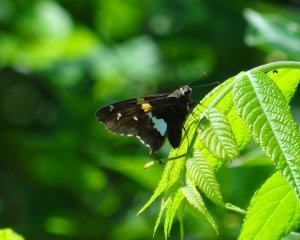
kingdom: Animalia
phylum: Arthropoda
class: Insecta
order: Lepidoptera
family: Hesperiidae
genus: Epargyreus
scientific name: Epargyreus clarus
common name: Silver-spotted Skipper
